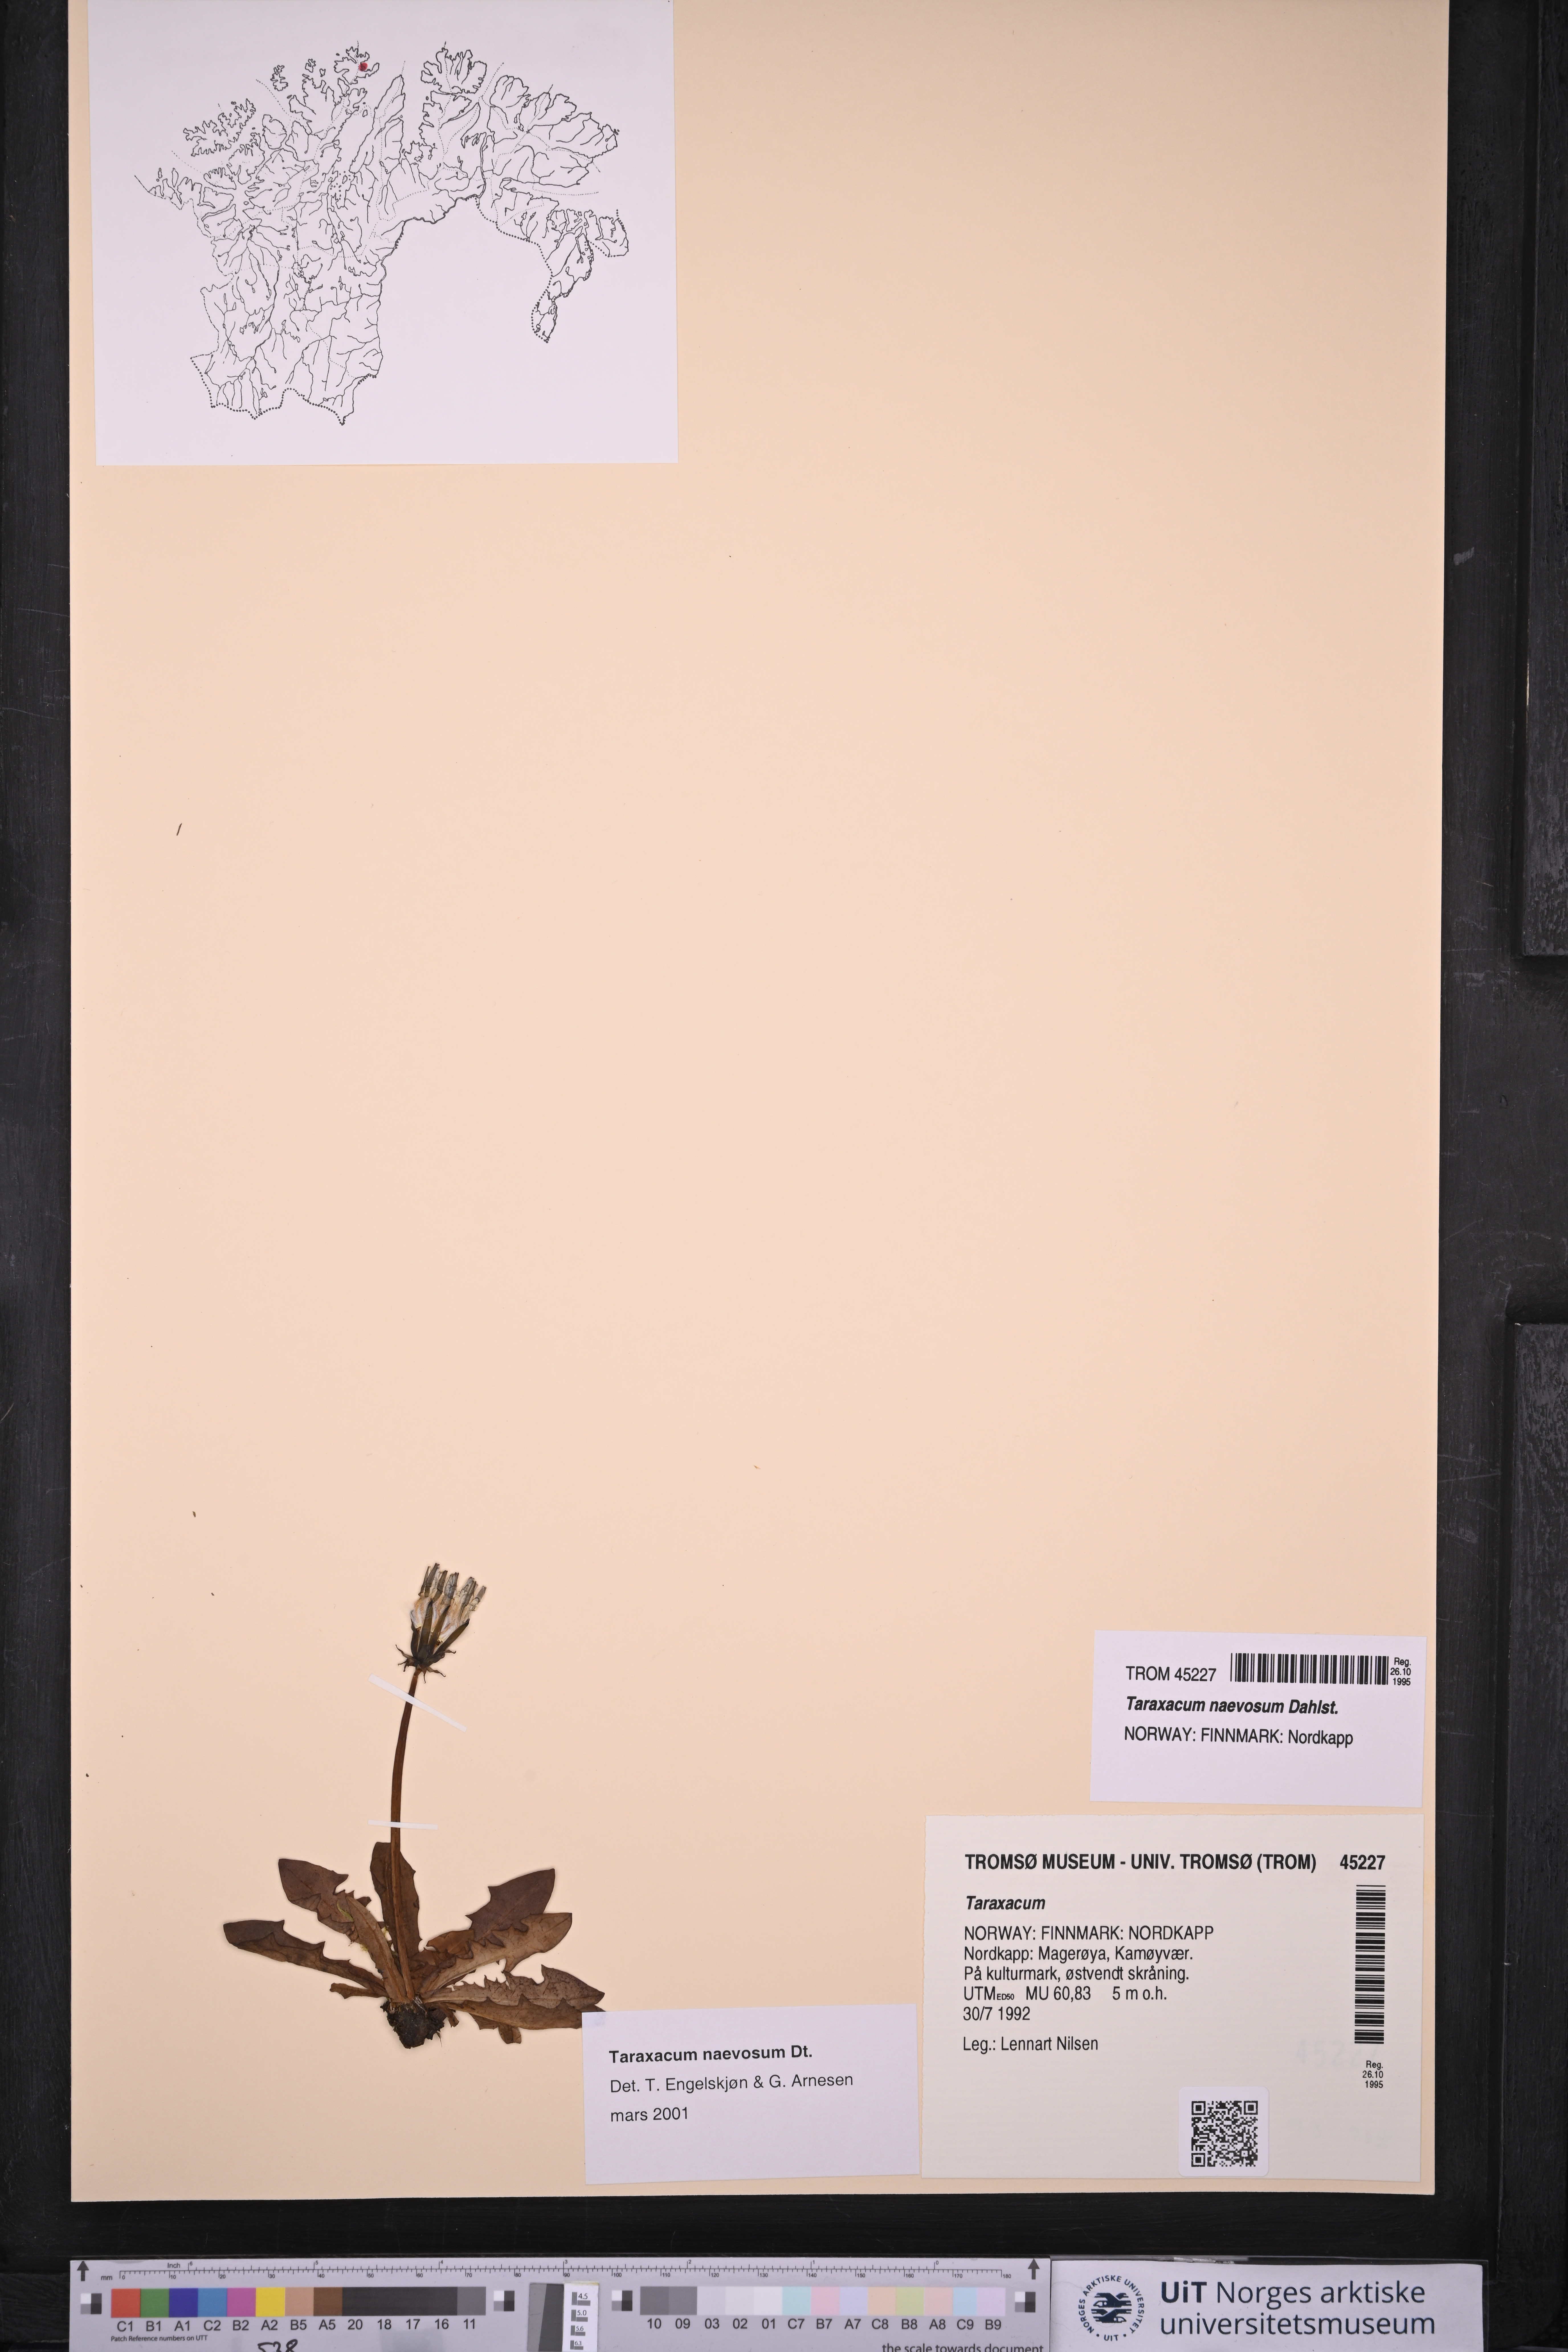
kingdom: Plantae
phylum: Tracheophyta
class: Magnoliopsida
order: Asterales
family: Asteraceae
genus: Taraxacum
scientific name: Taraxacum naevosum
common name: Squat dandelion
